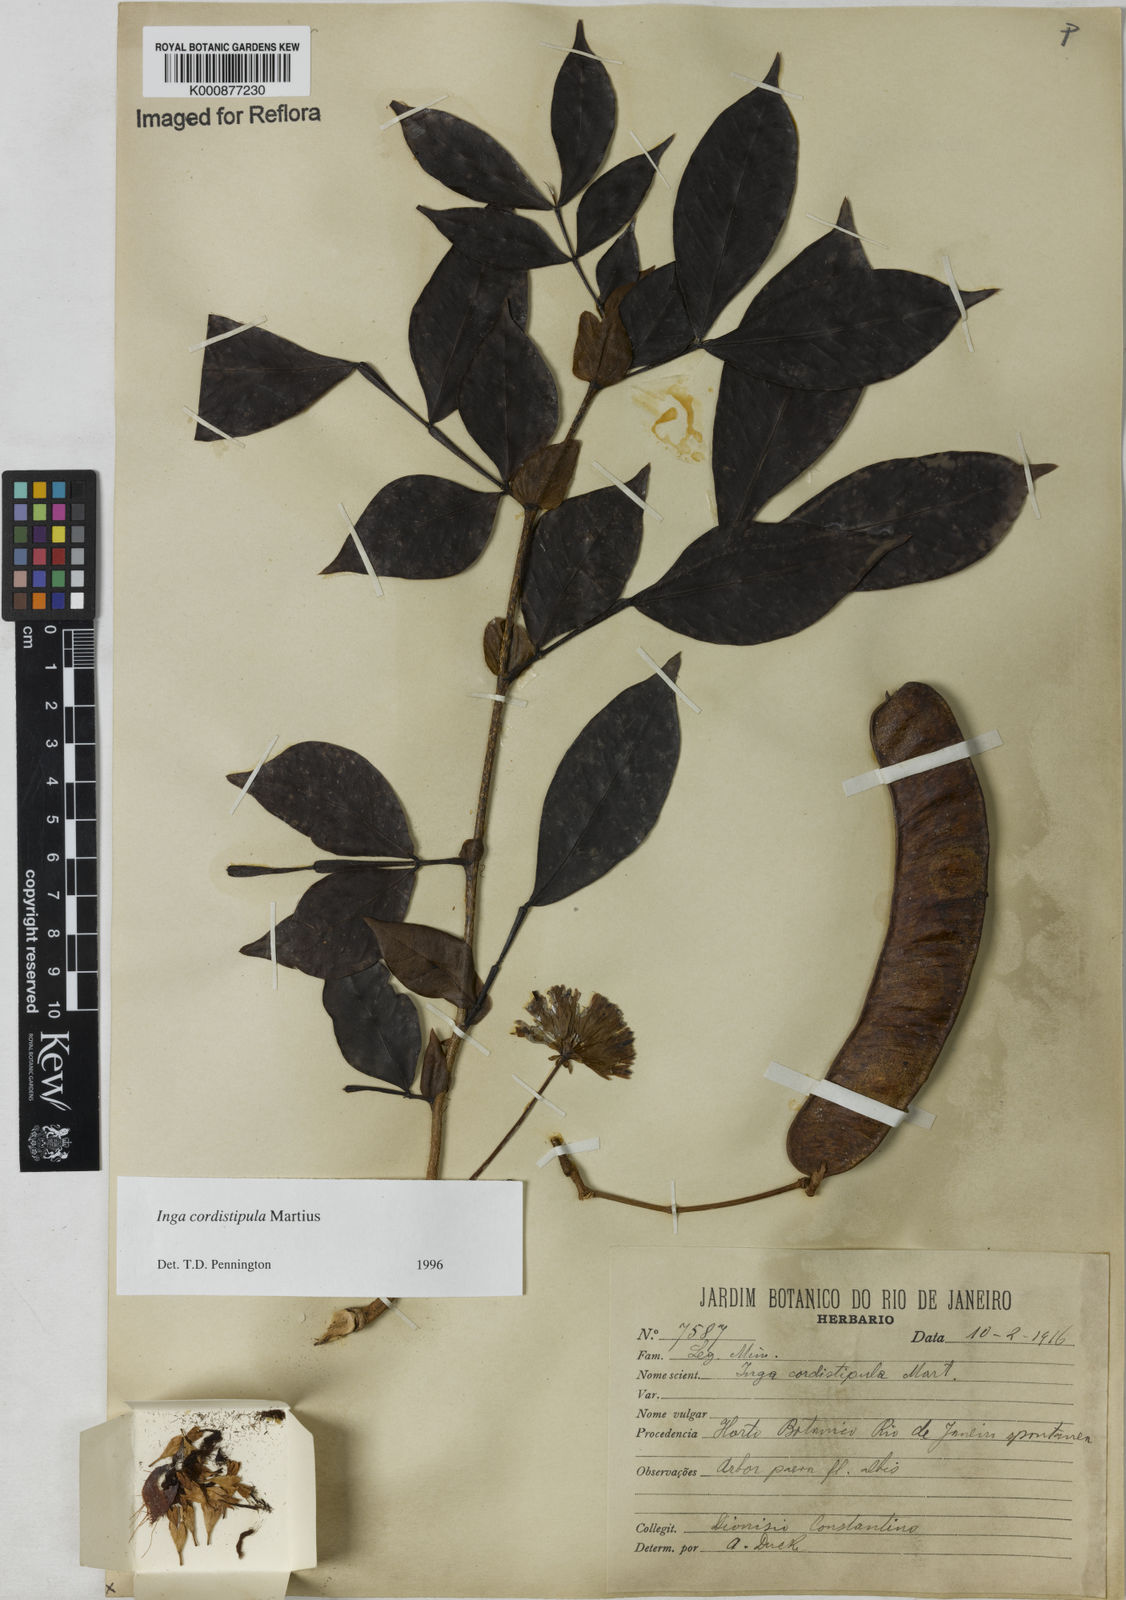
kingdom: Plantae
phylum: Tracheophyta
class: Magnoliopsida
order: Fabales
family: Fabaceae
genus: Inga
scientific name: Inga cordistipula
